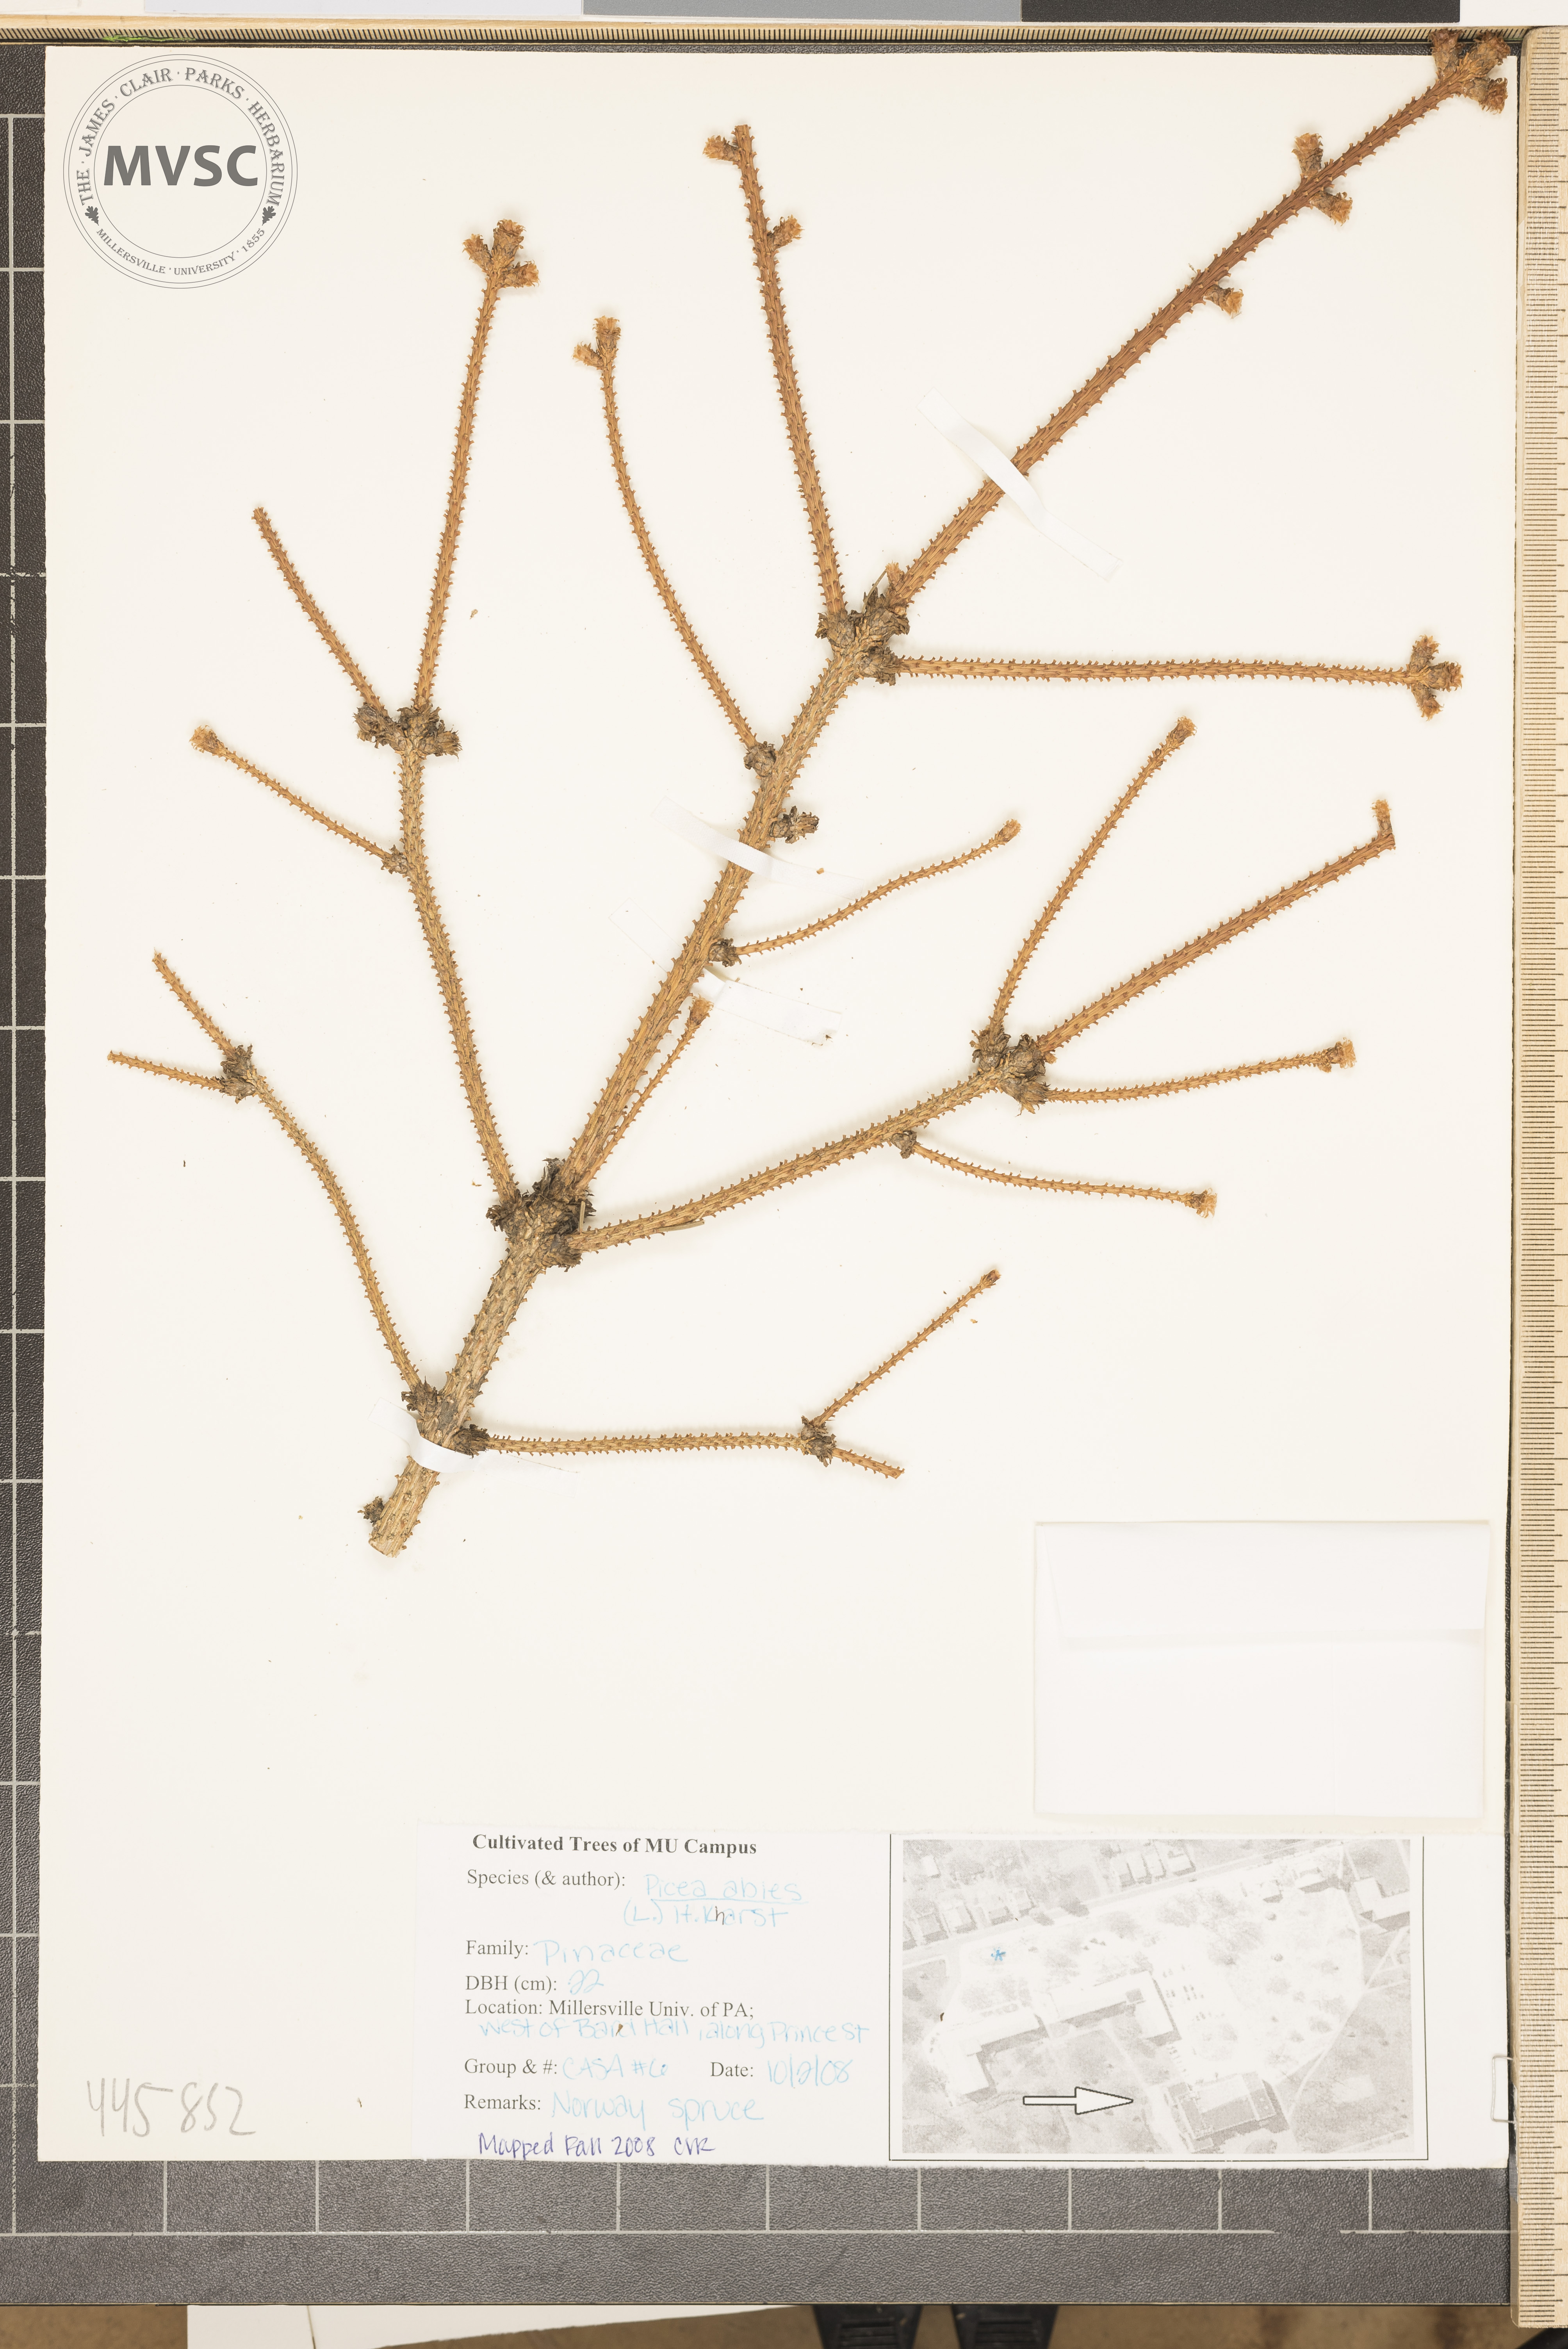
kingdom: Plantae
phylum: Tracheophyta
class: Pinopsida
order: Pinales
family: Pinaceae
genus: Picea
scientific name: Picea abies
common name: Norway spruce
